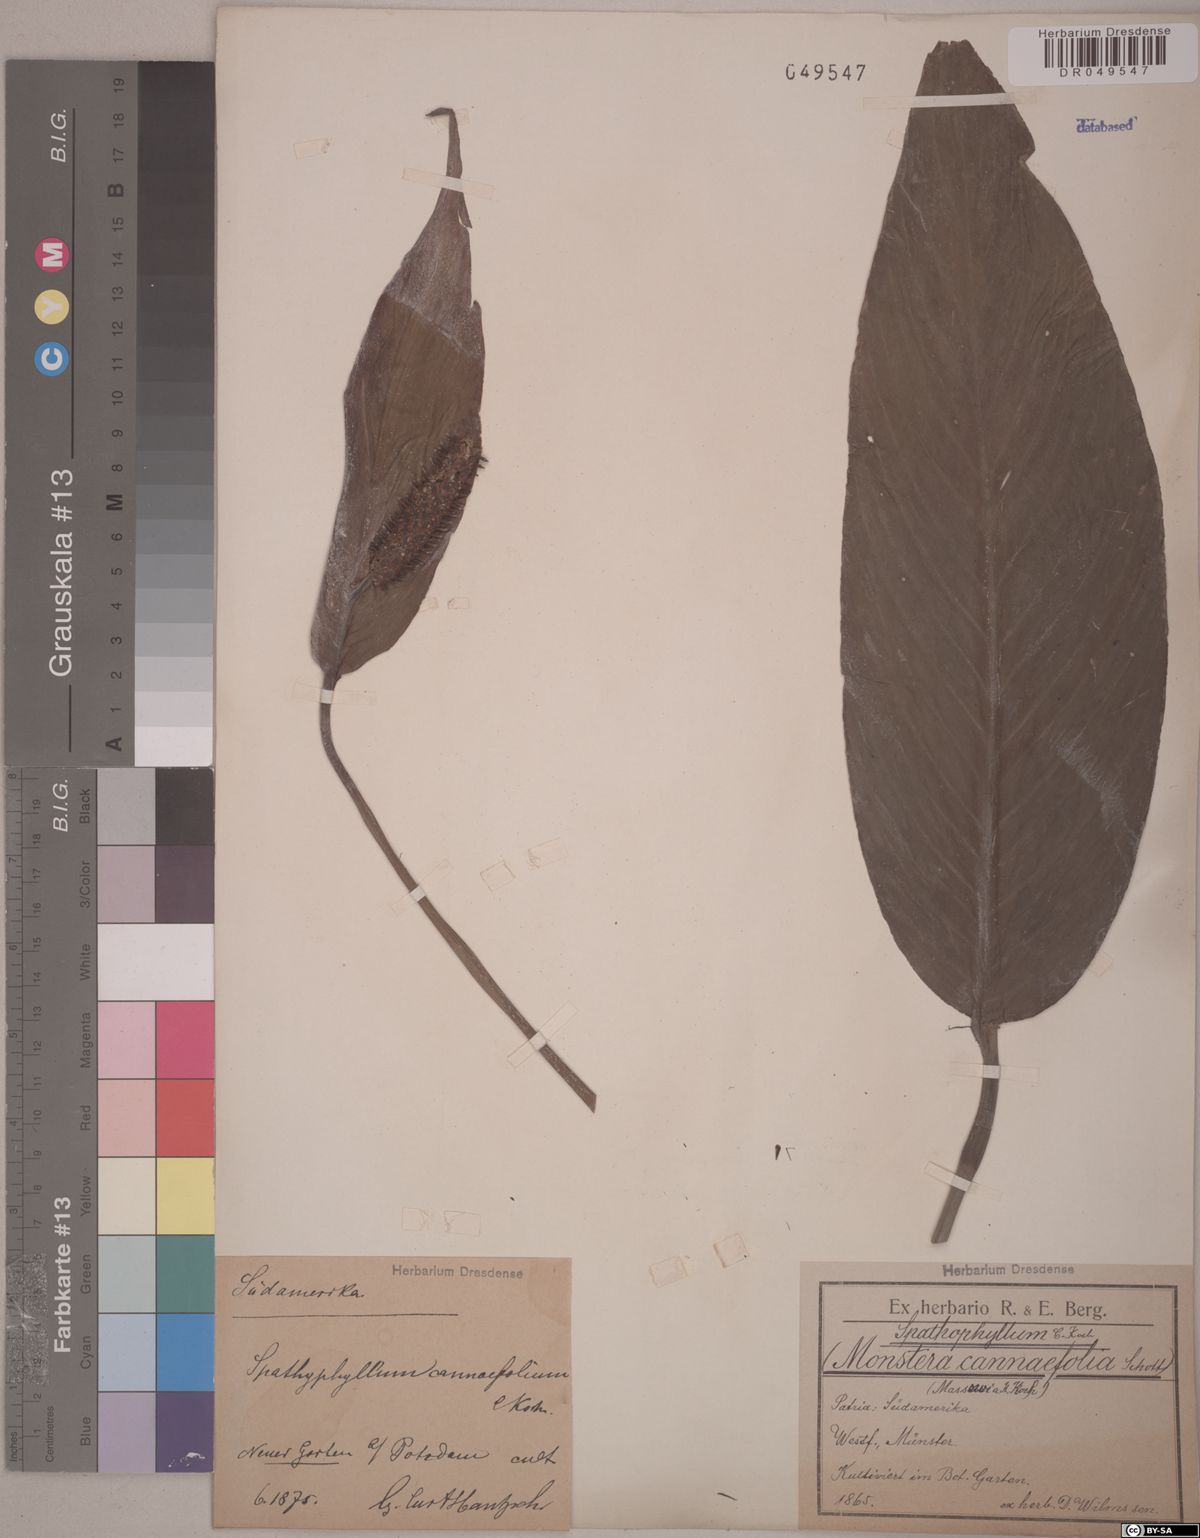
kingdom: Plantae
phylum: Tracheophyta
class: Liliopsida
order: Alismatales
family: Araceae
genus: Spathiphyllum
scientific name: Spathiphyllum cannifolium
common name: Spatheflower
